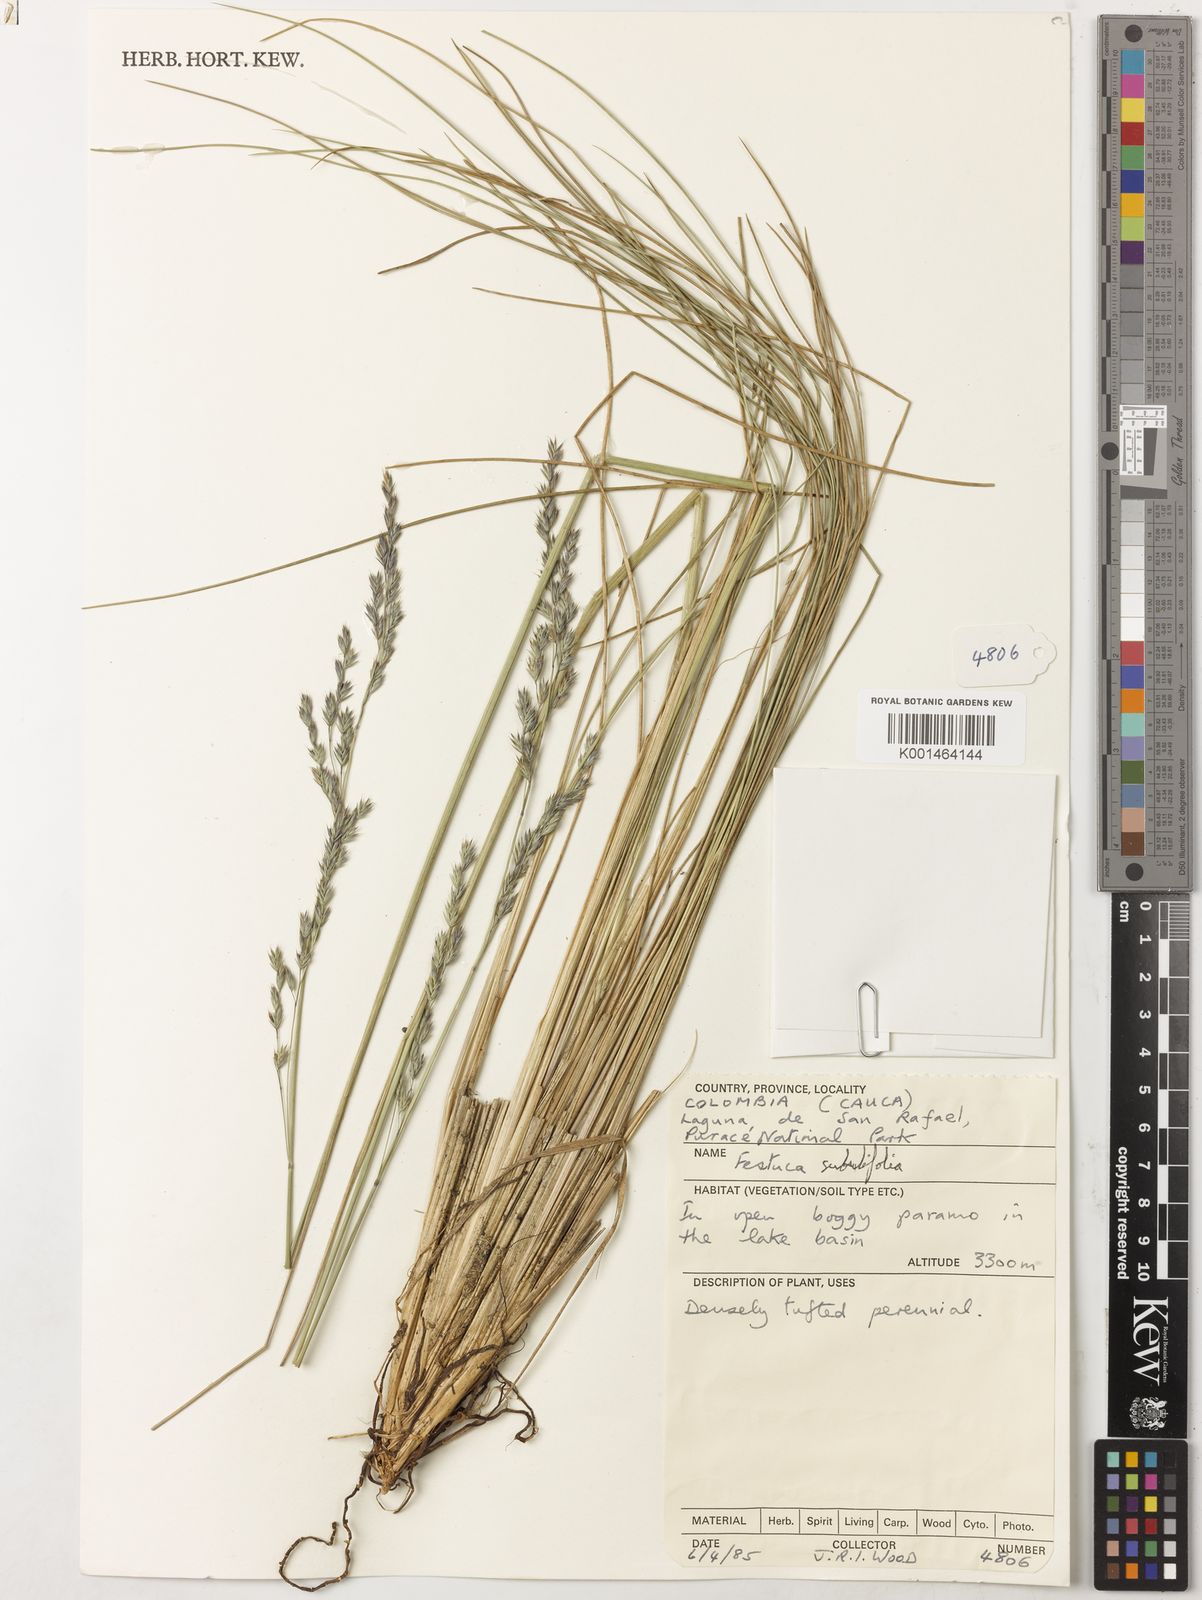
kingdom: Plantae
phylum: Tracheophyta
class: Liliopsida
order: Poales
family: Poaceae
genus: Festuca
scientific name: Festuca subuliflora
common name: Crinkle-awn fescue
